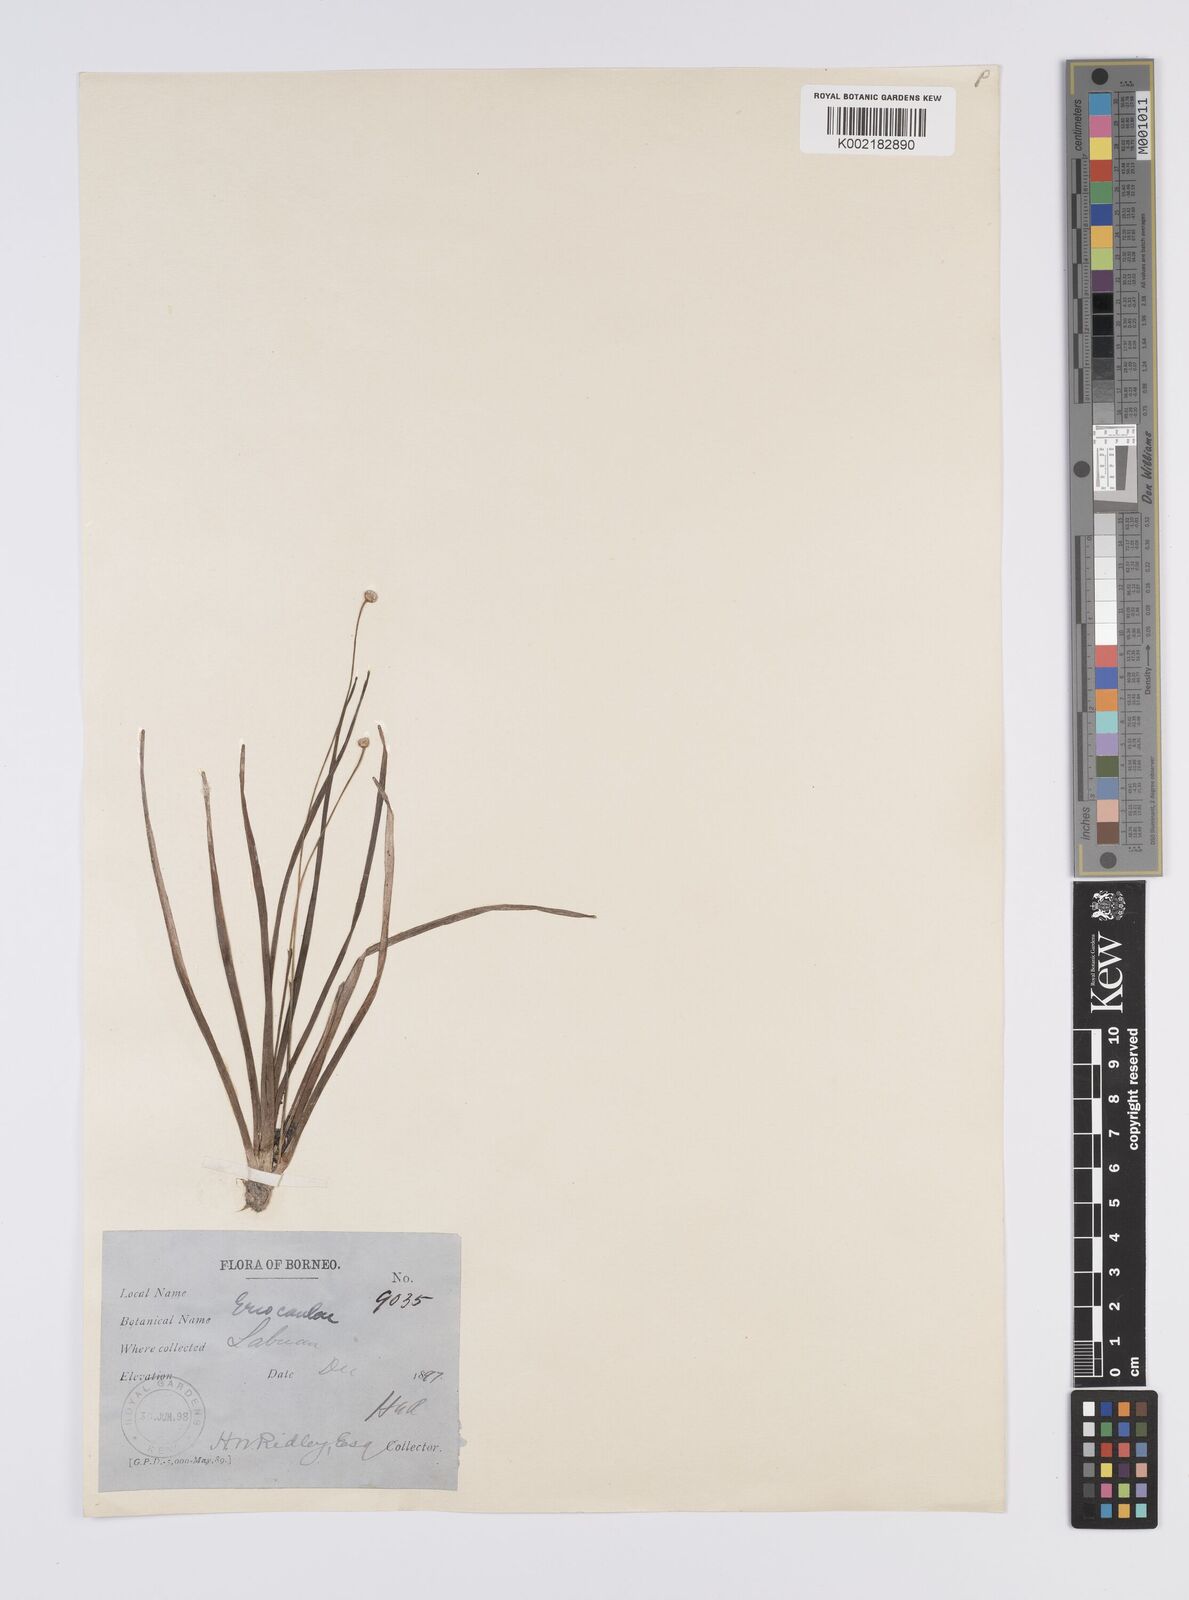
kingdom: Plantae
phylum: Tracheophyta
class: Liliopsida
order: Poales
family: Eriocaulaceae
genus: Eriocaulon
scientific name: Eriocaulon
